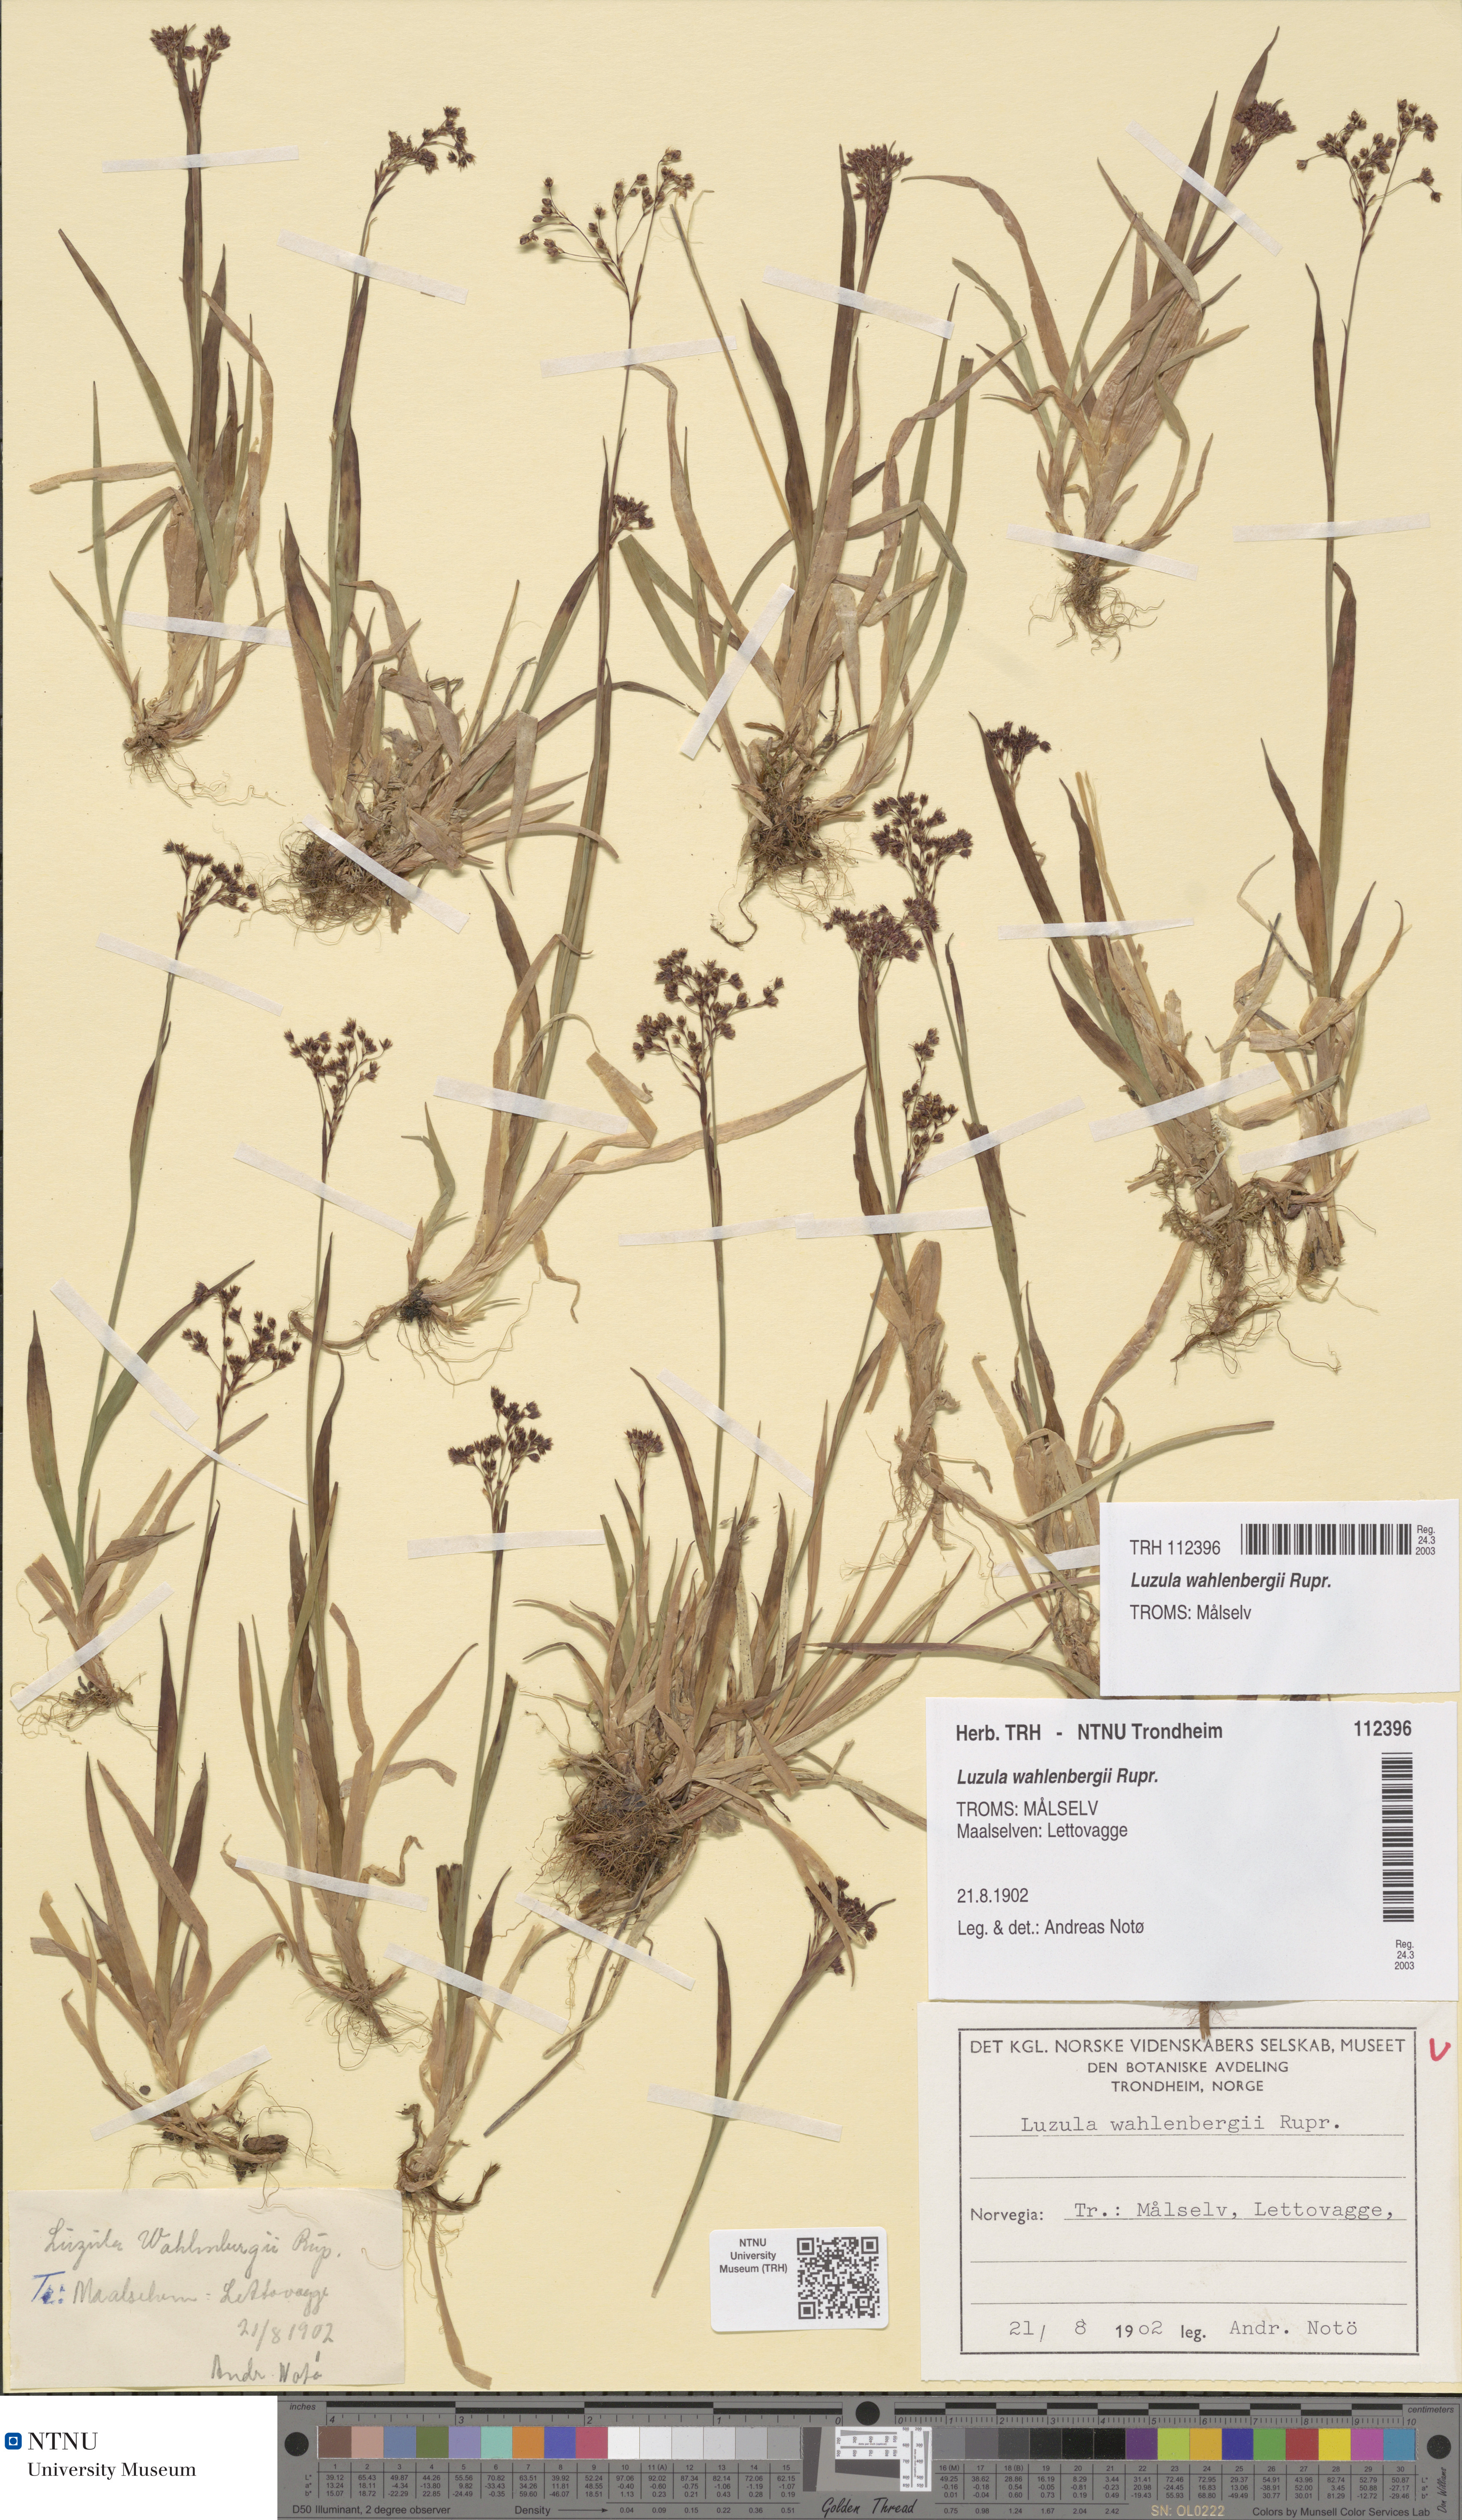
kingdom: Plantae
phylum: Tracheophyta
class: Liliopsida
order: Poales
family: Juncaceae
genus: Luzula
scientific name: Luzula wahlenbergii
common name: Wahlenberg's wood-rush
